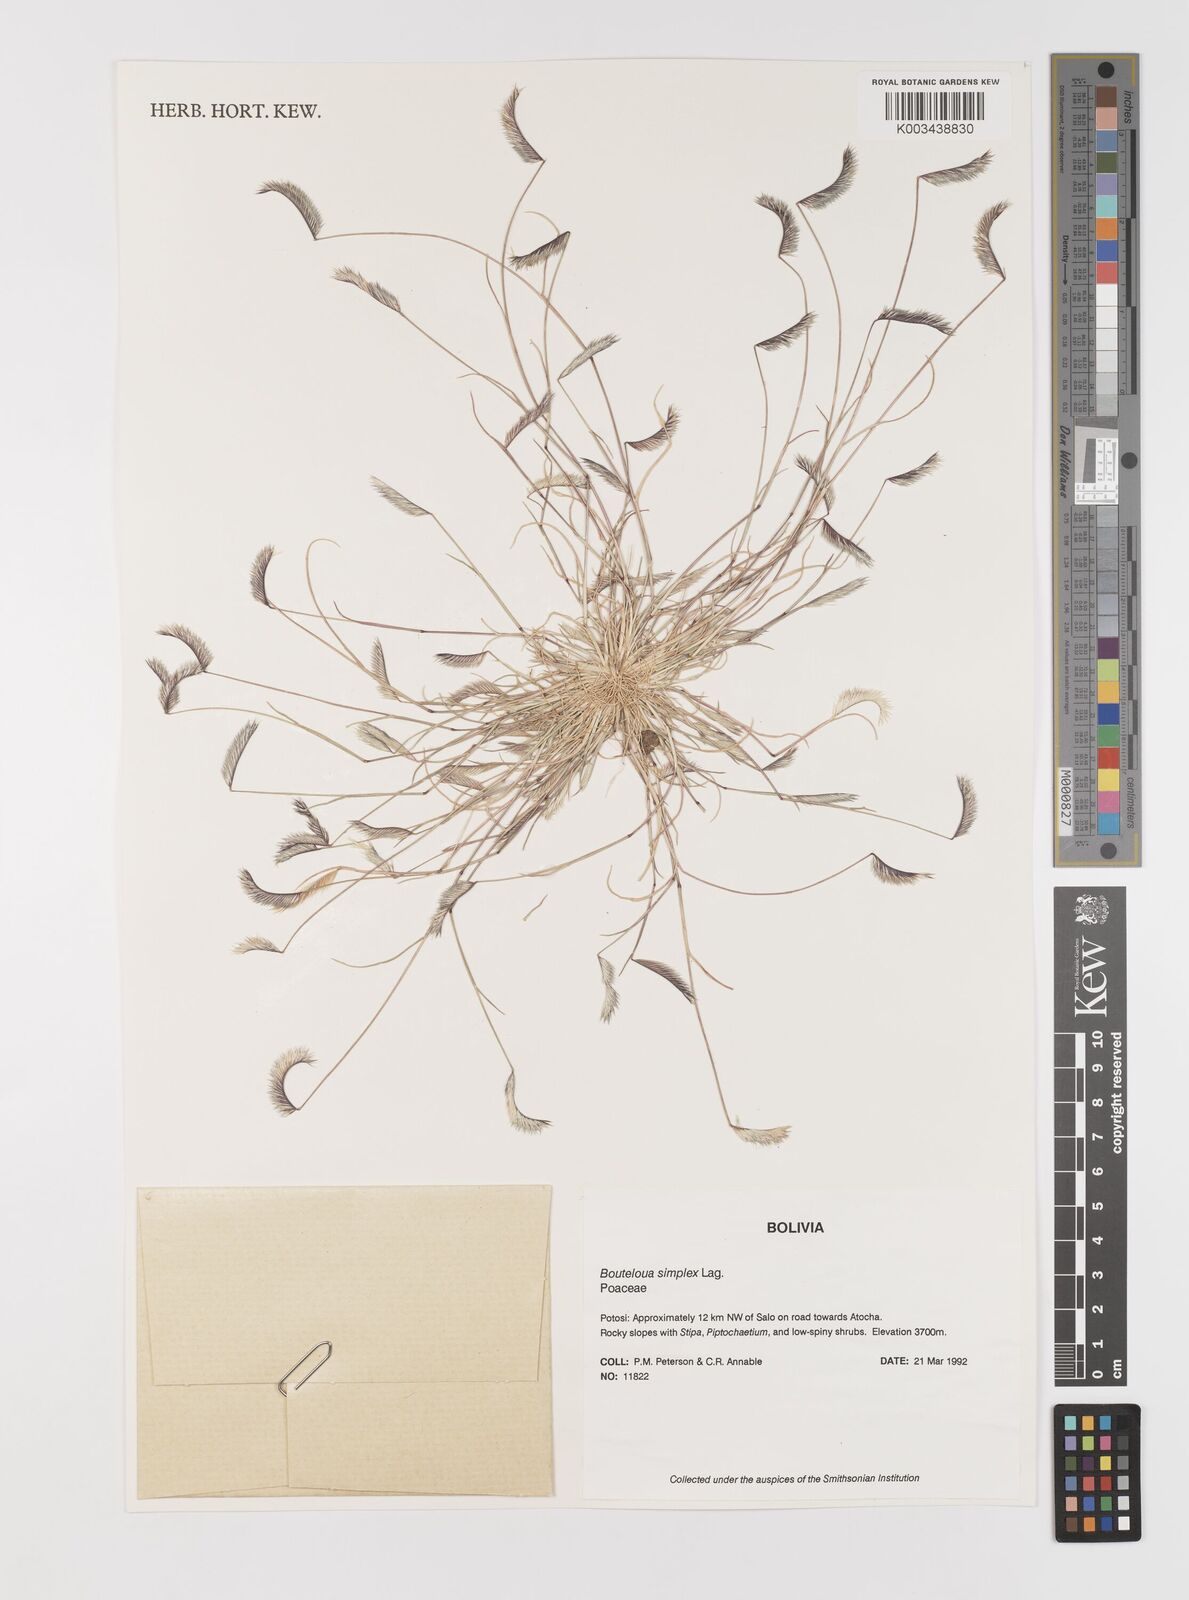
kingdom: Plantae
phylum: Tracheophyta
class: Liliopsida
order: Poales
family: Poaceae
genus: Bouteloua
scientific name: Bouteloua simplex
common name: Mat grama
